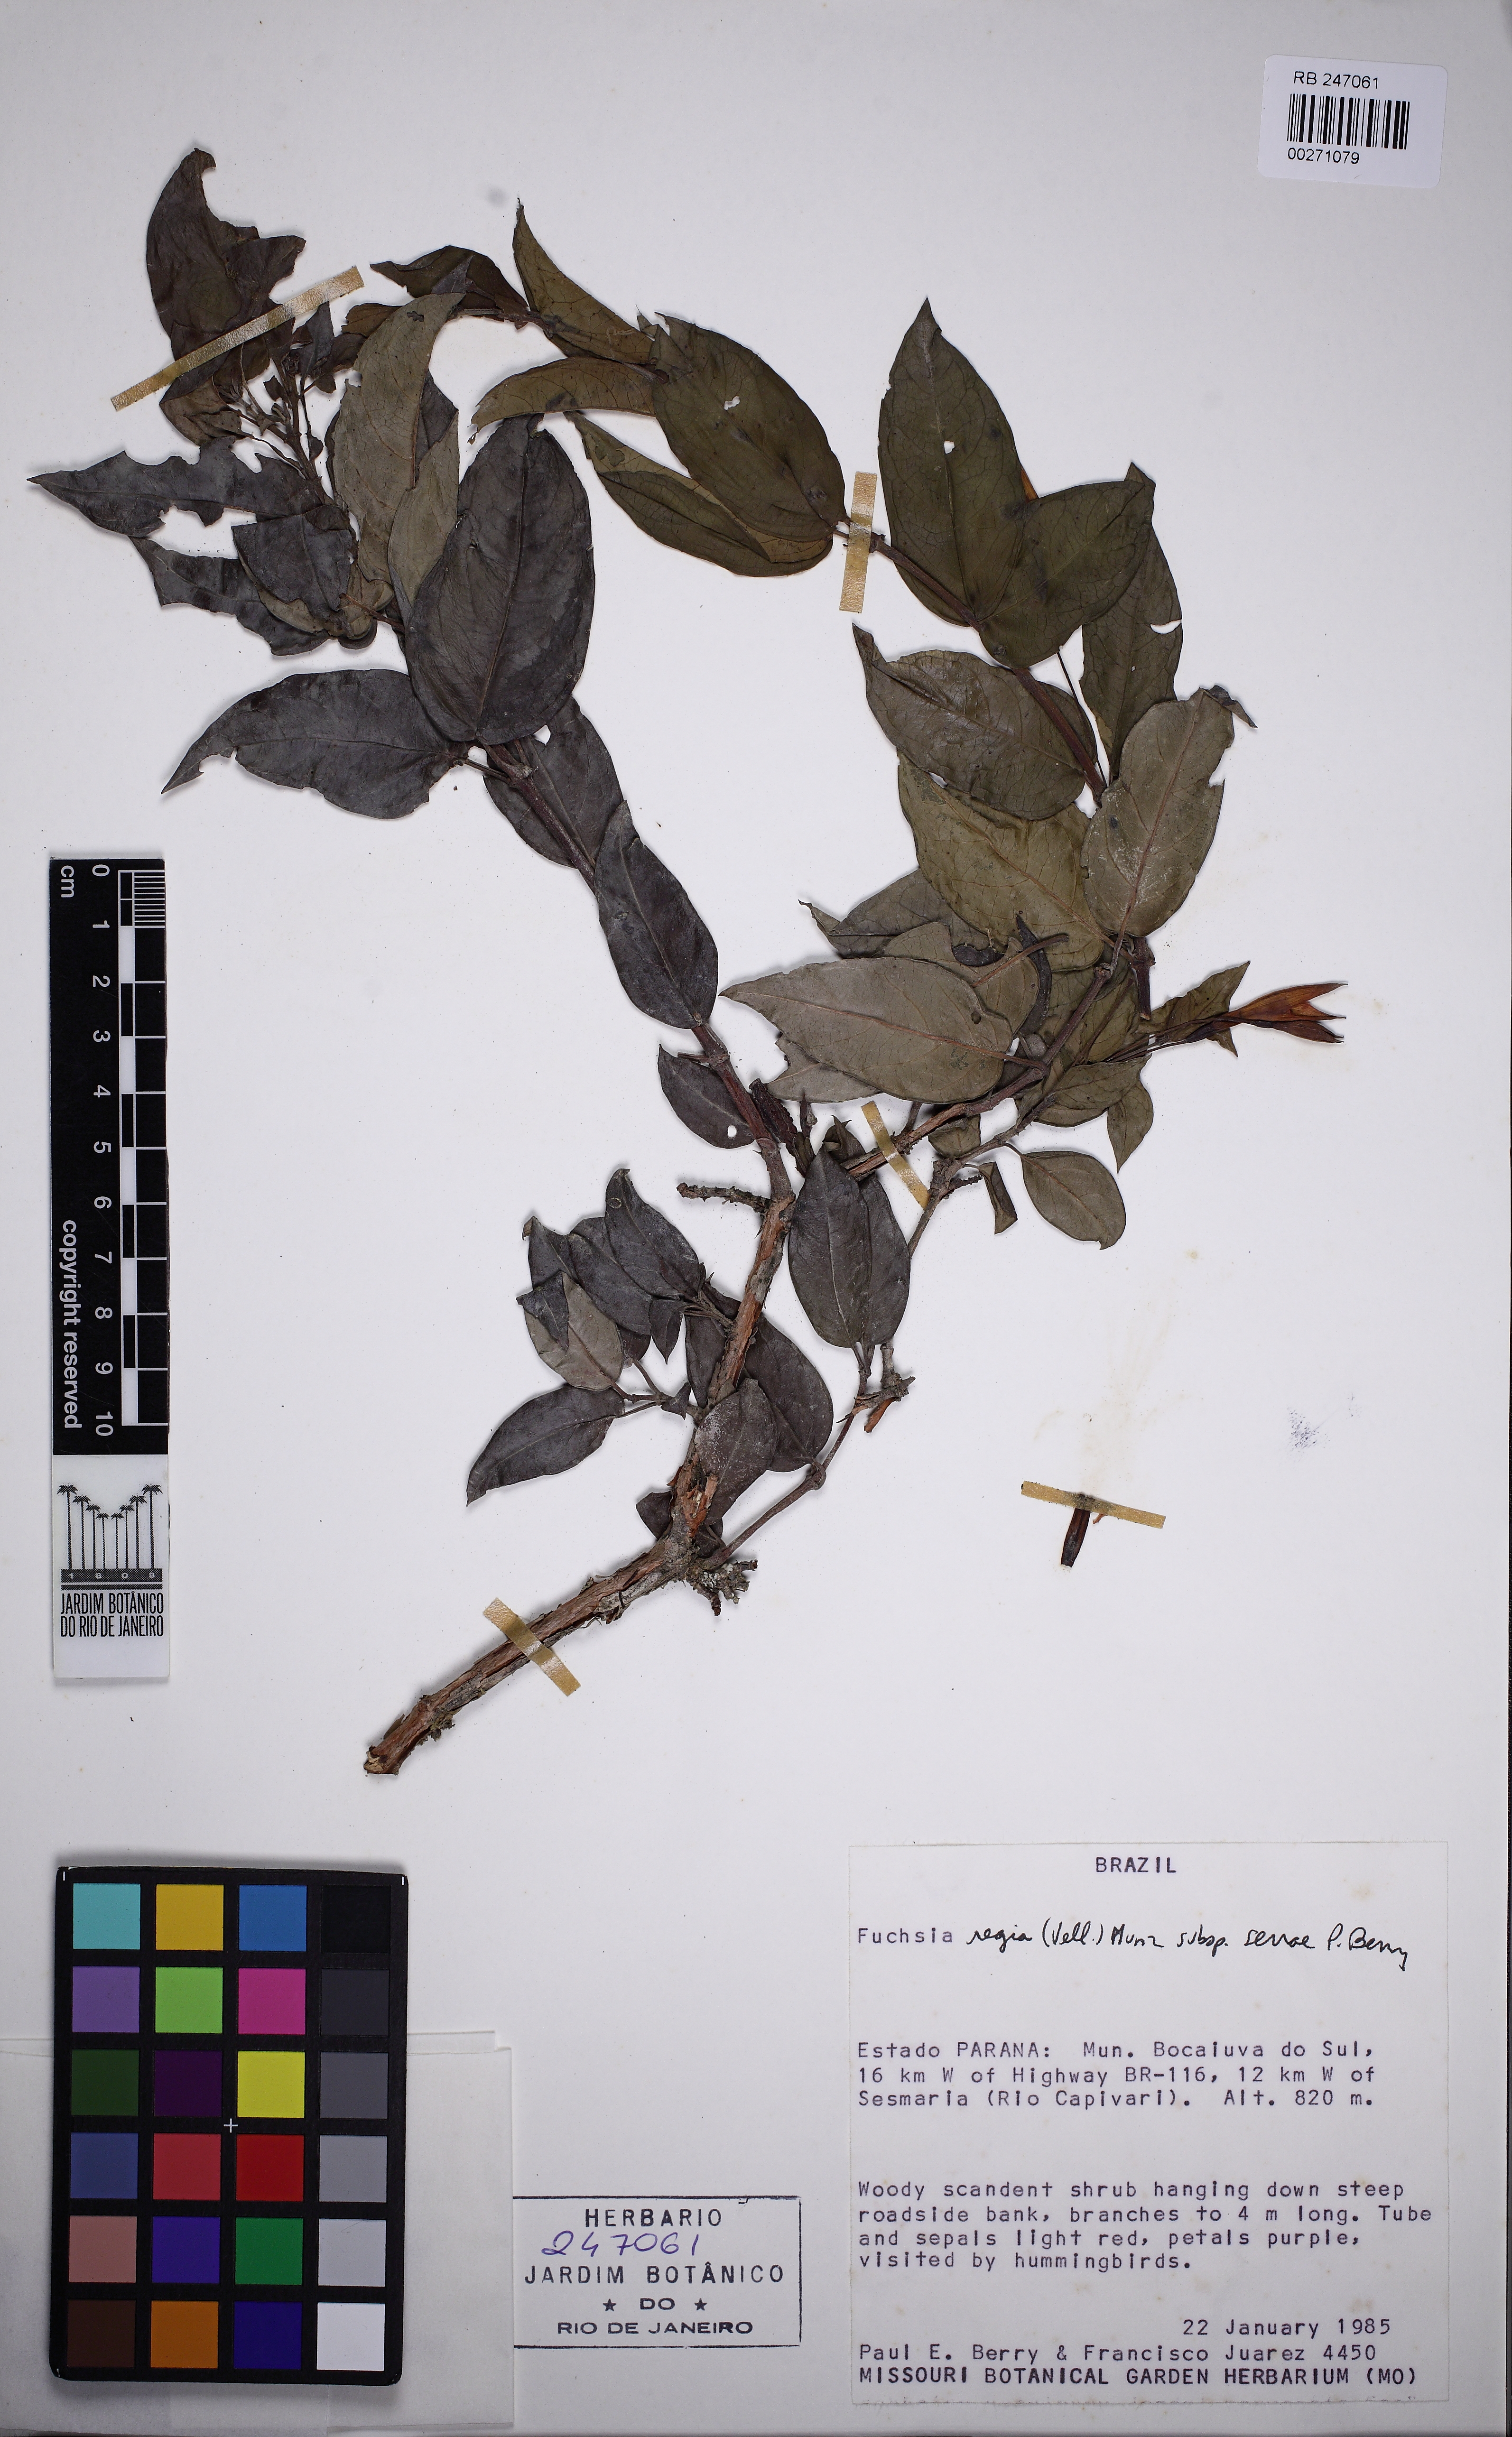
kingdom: Plantae
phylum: Tracheophyta
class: Magnoliopsida
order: Myrtales
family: Onagraceae
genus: Fuchsia
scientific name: Fuchsia regia
